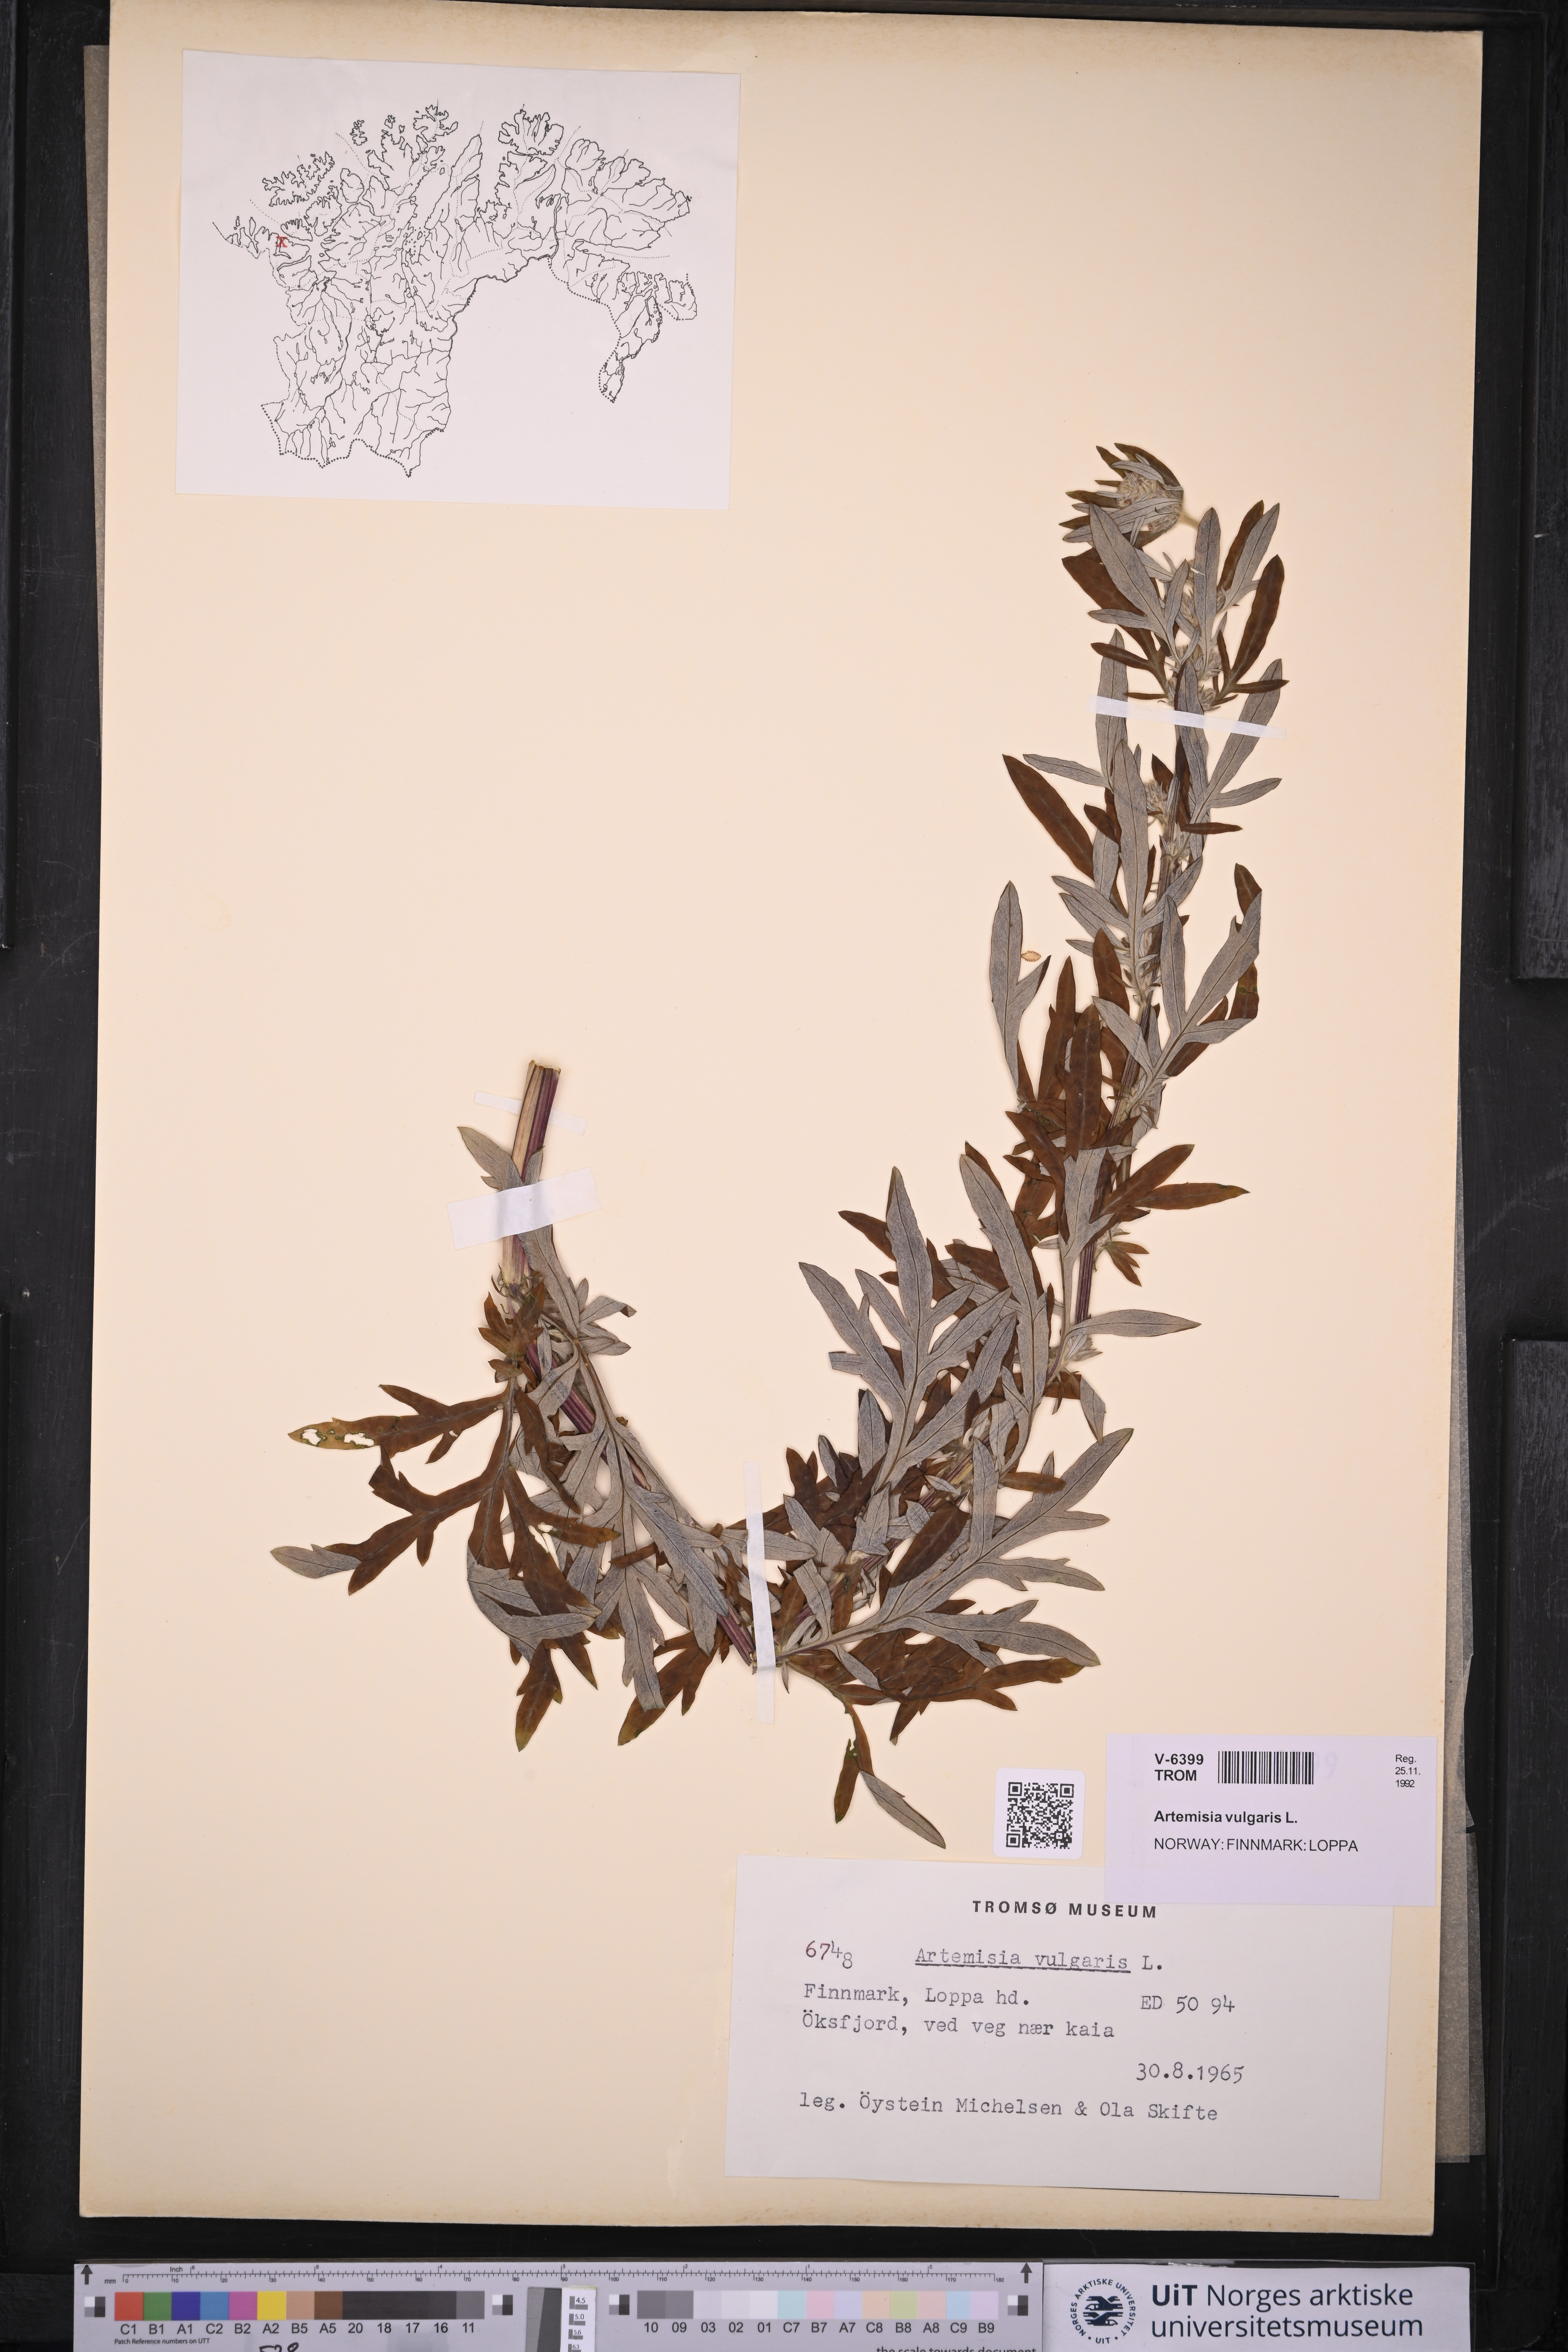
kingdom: Plantae
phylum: Tracheophyta
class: Magnoliopsida
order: Asterales
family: Asteraceae
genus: Artemisia
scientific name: Artemisia vulgaris
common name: Mugwort
